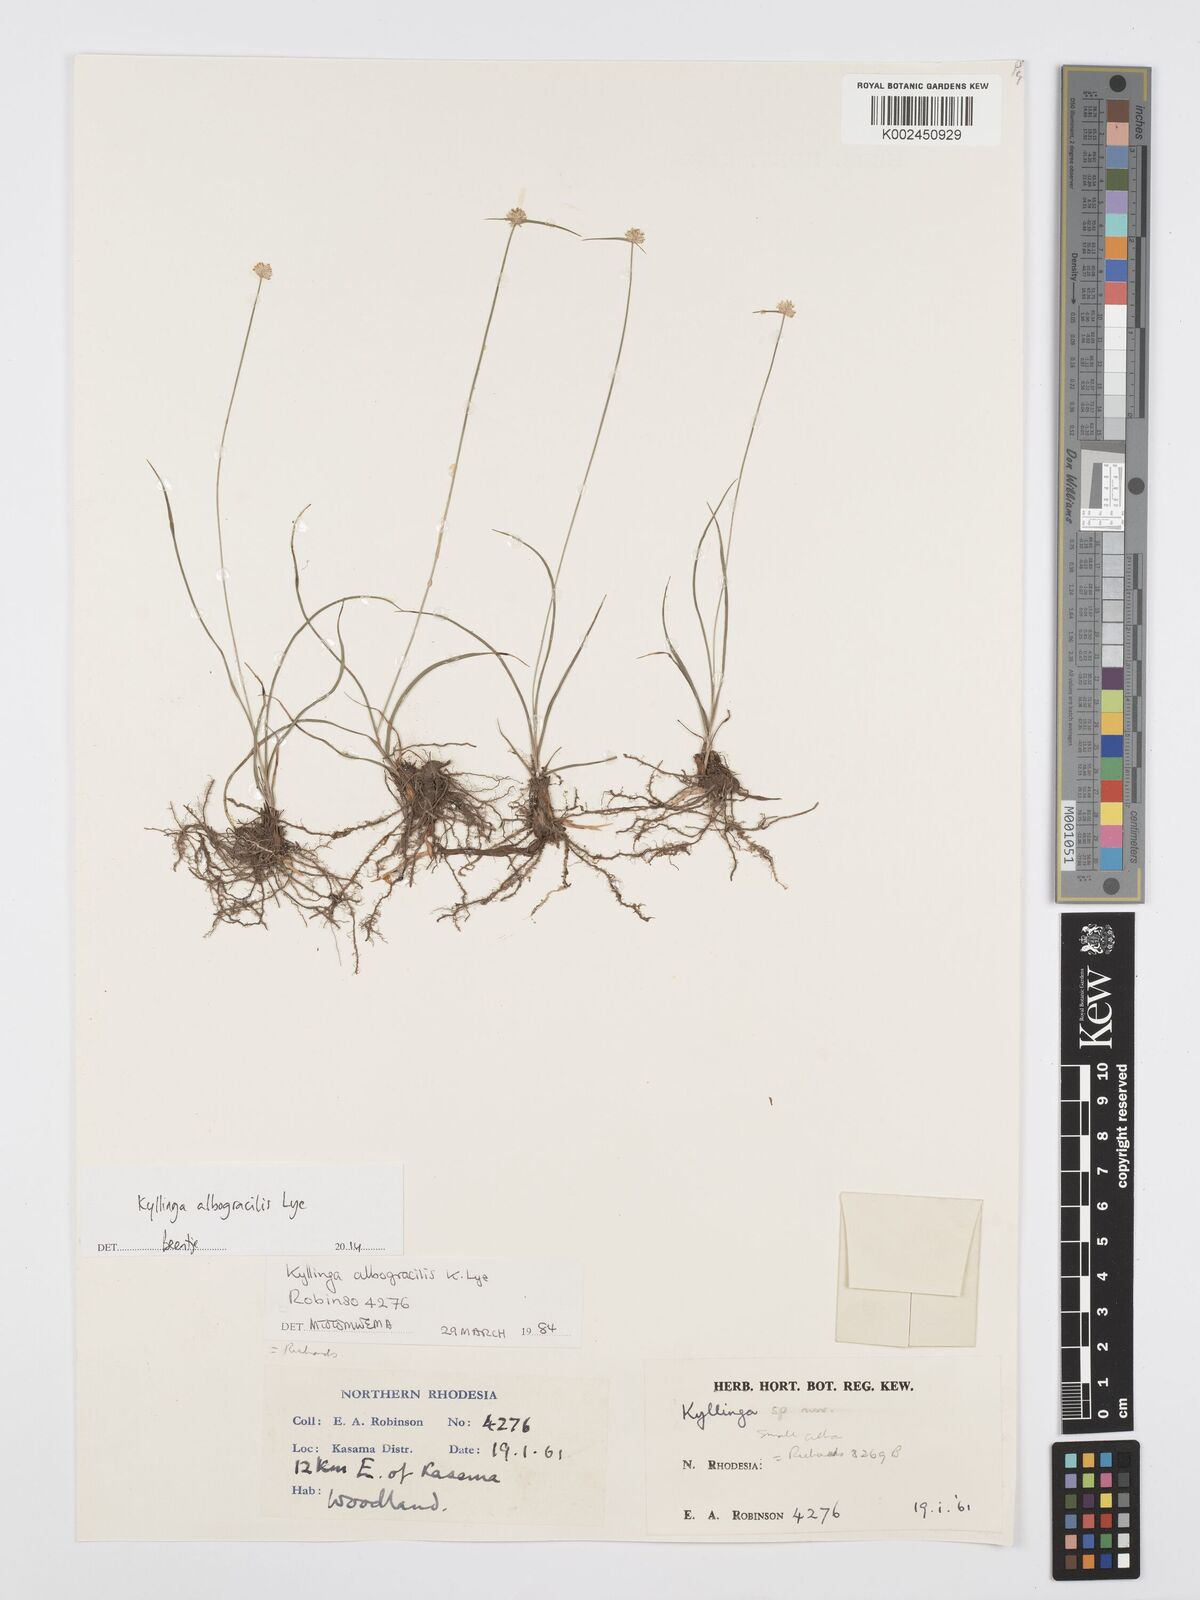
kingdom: Plantae
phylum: Tracheophyta
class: Liliopsida
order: Poales
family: Cyperaceae
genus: Cyperus
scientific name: Cyperus albogracilis
